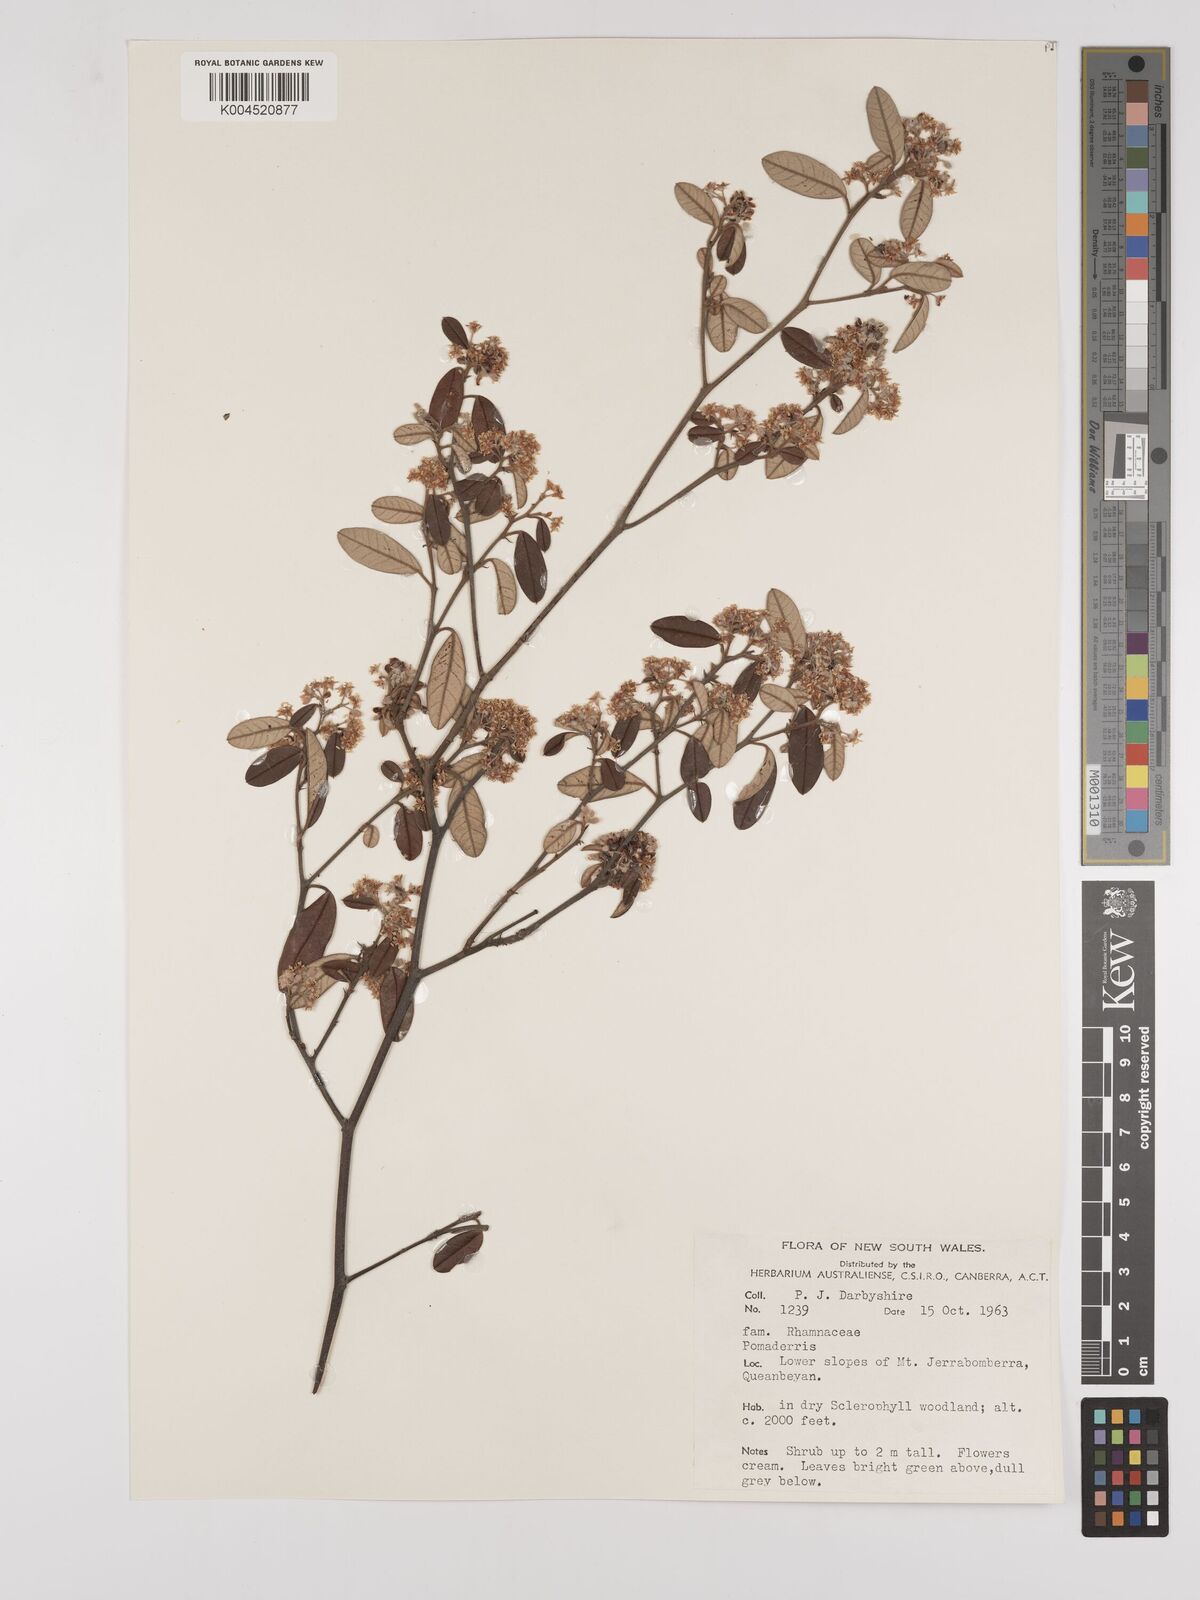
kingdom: Plantae
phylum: Tracheophyta
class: Magnoliopsida
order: Rosales
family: Rhamnaceae
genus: Pomaderris
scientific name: Pomaderris
